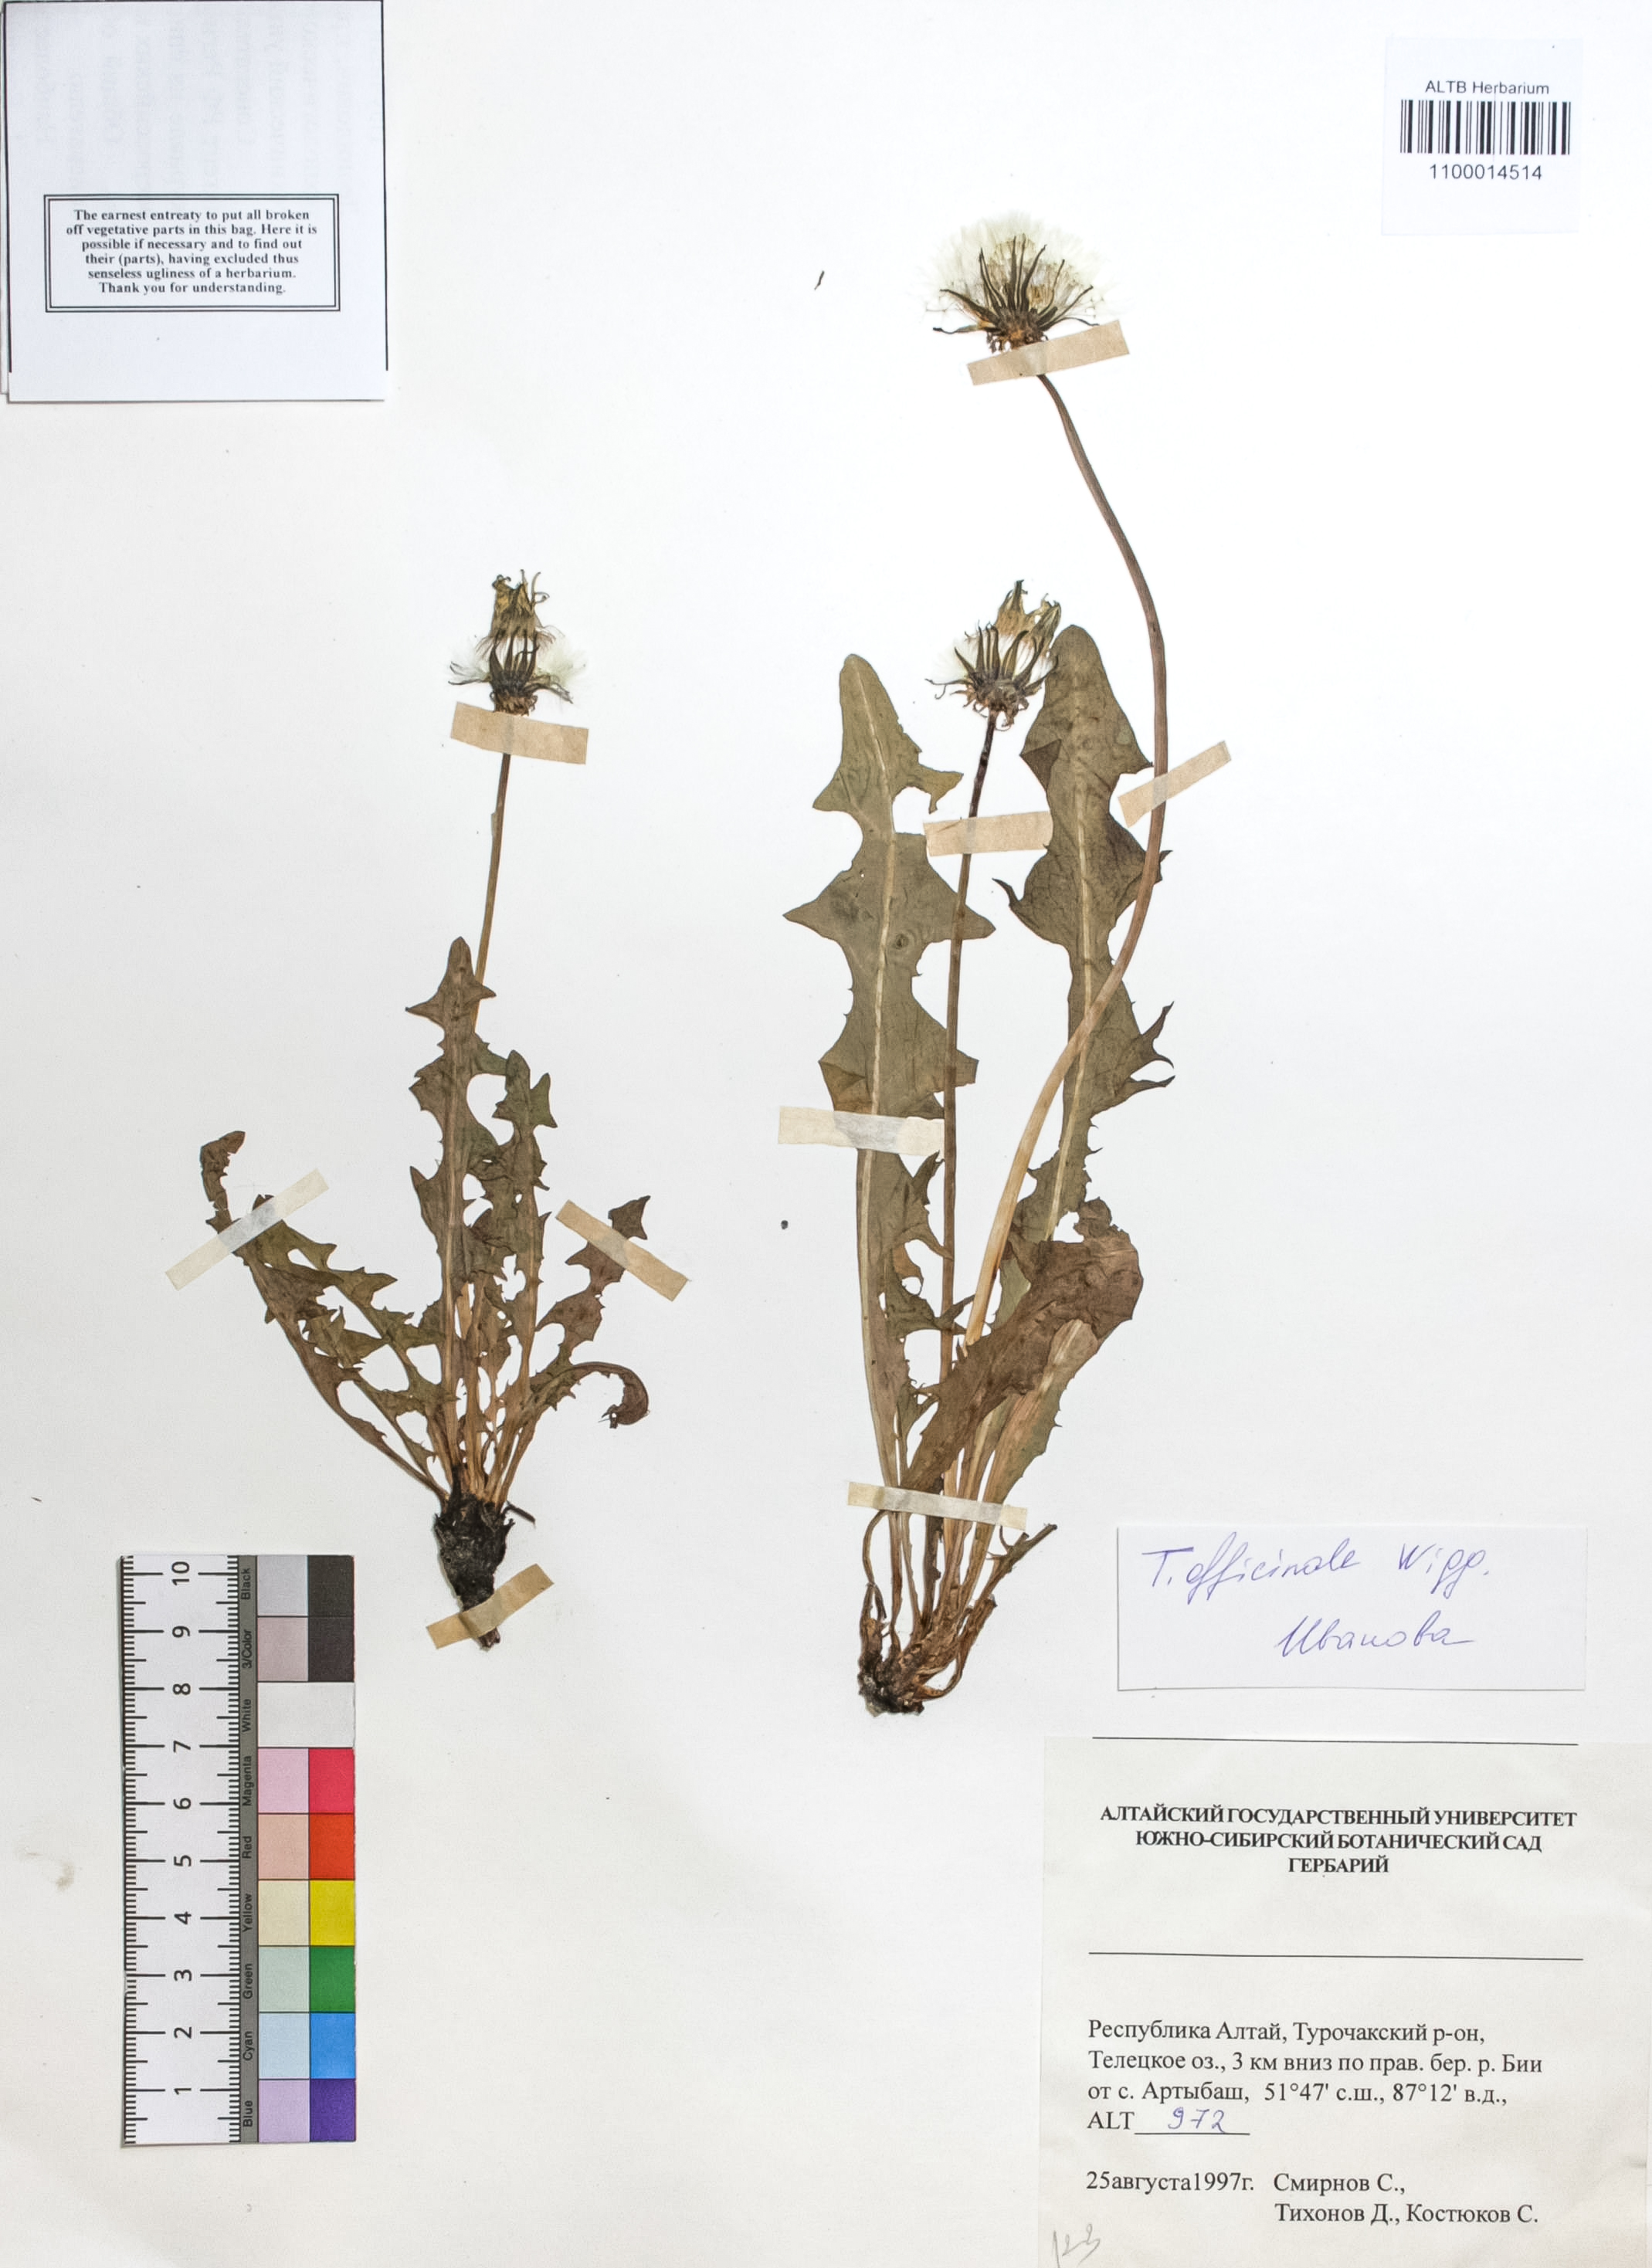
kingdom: Plantae
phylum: Tracheophyta
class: Magnoliopsida
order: Asterales
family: Asteraceae
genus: Taraxacum
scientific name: Taraxacum officinale
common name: Common dandelion
